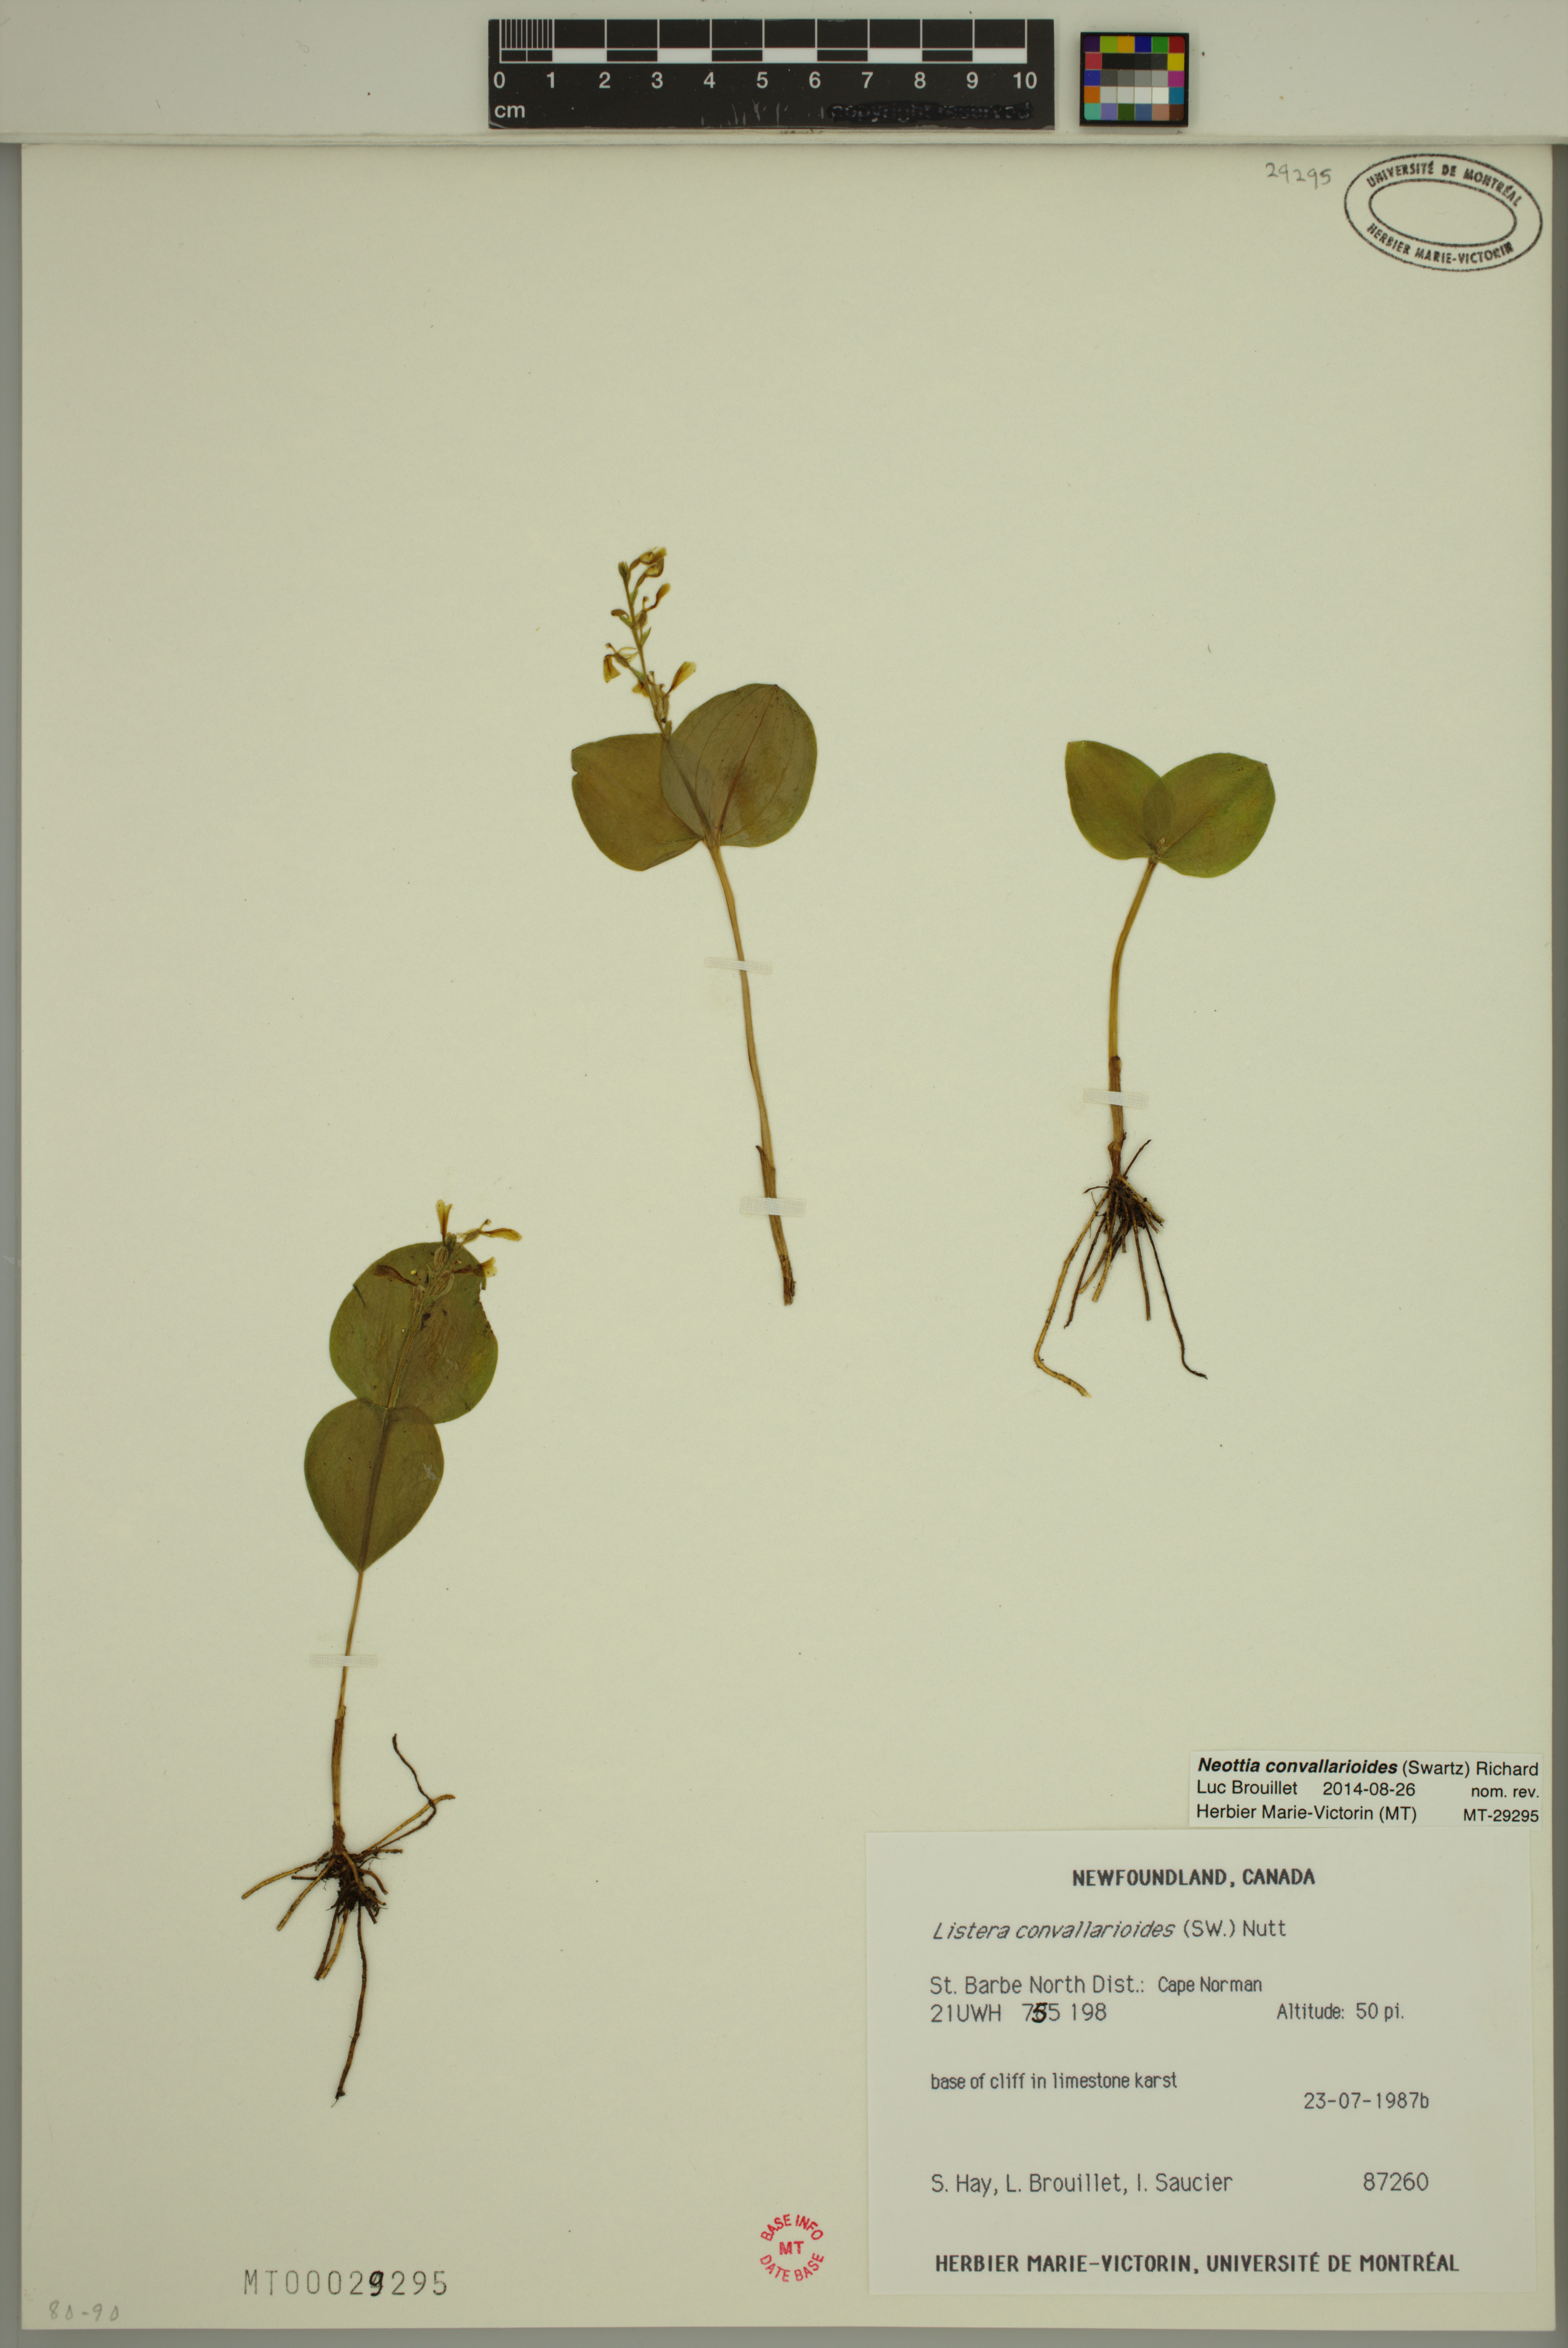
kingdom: Plantae
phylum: Tracheophyta
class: Liliopsida
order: Asparagales
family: Orchidaceae
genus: Neottia
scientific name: Neottia convallarioides
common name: Broadleaf twayblade
